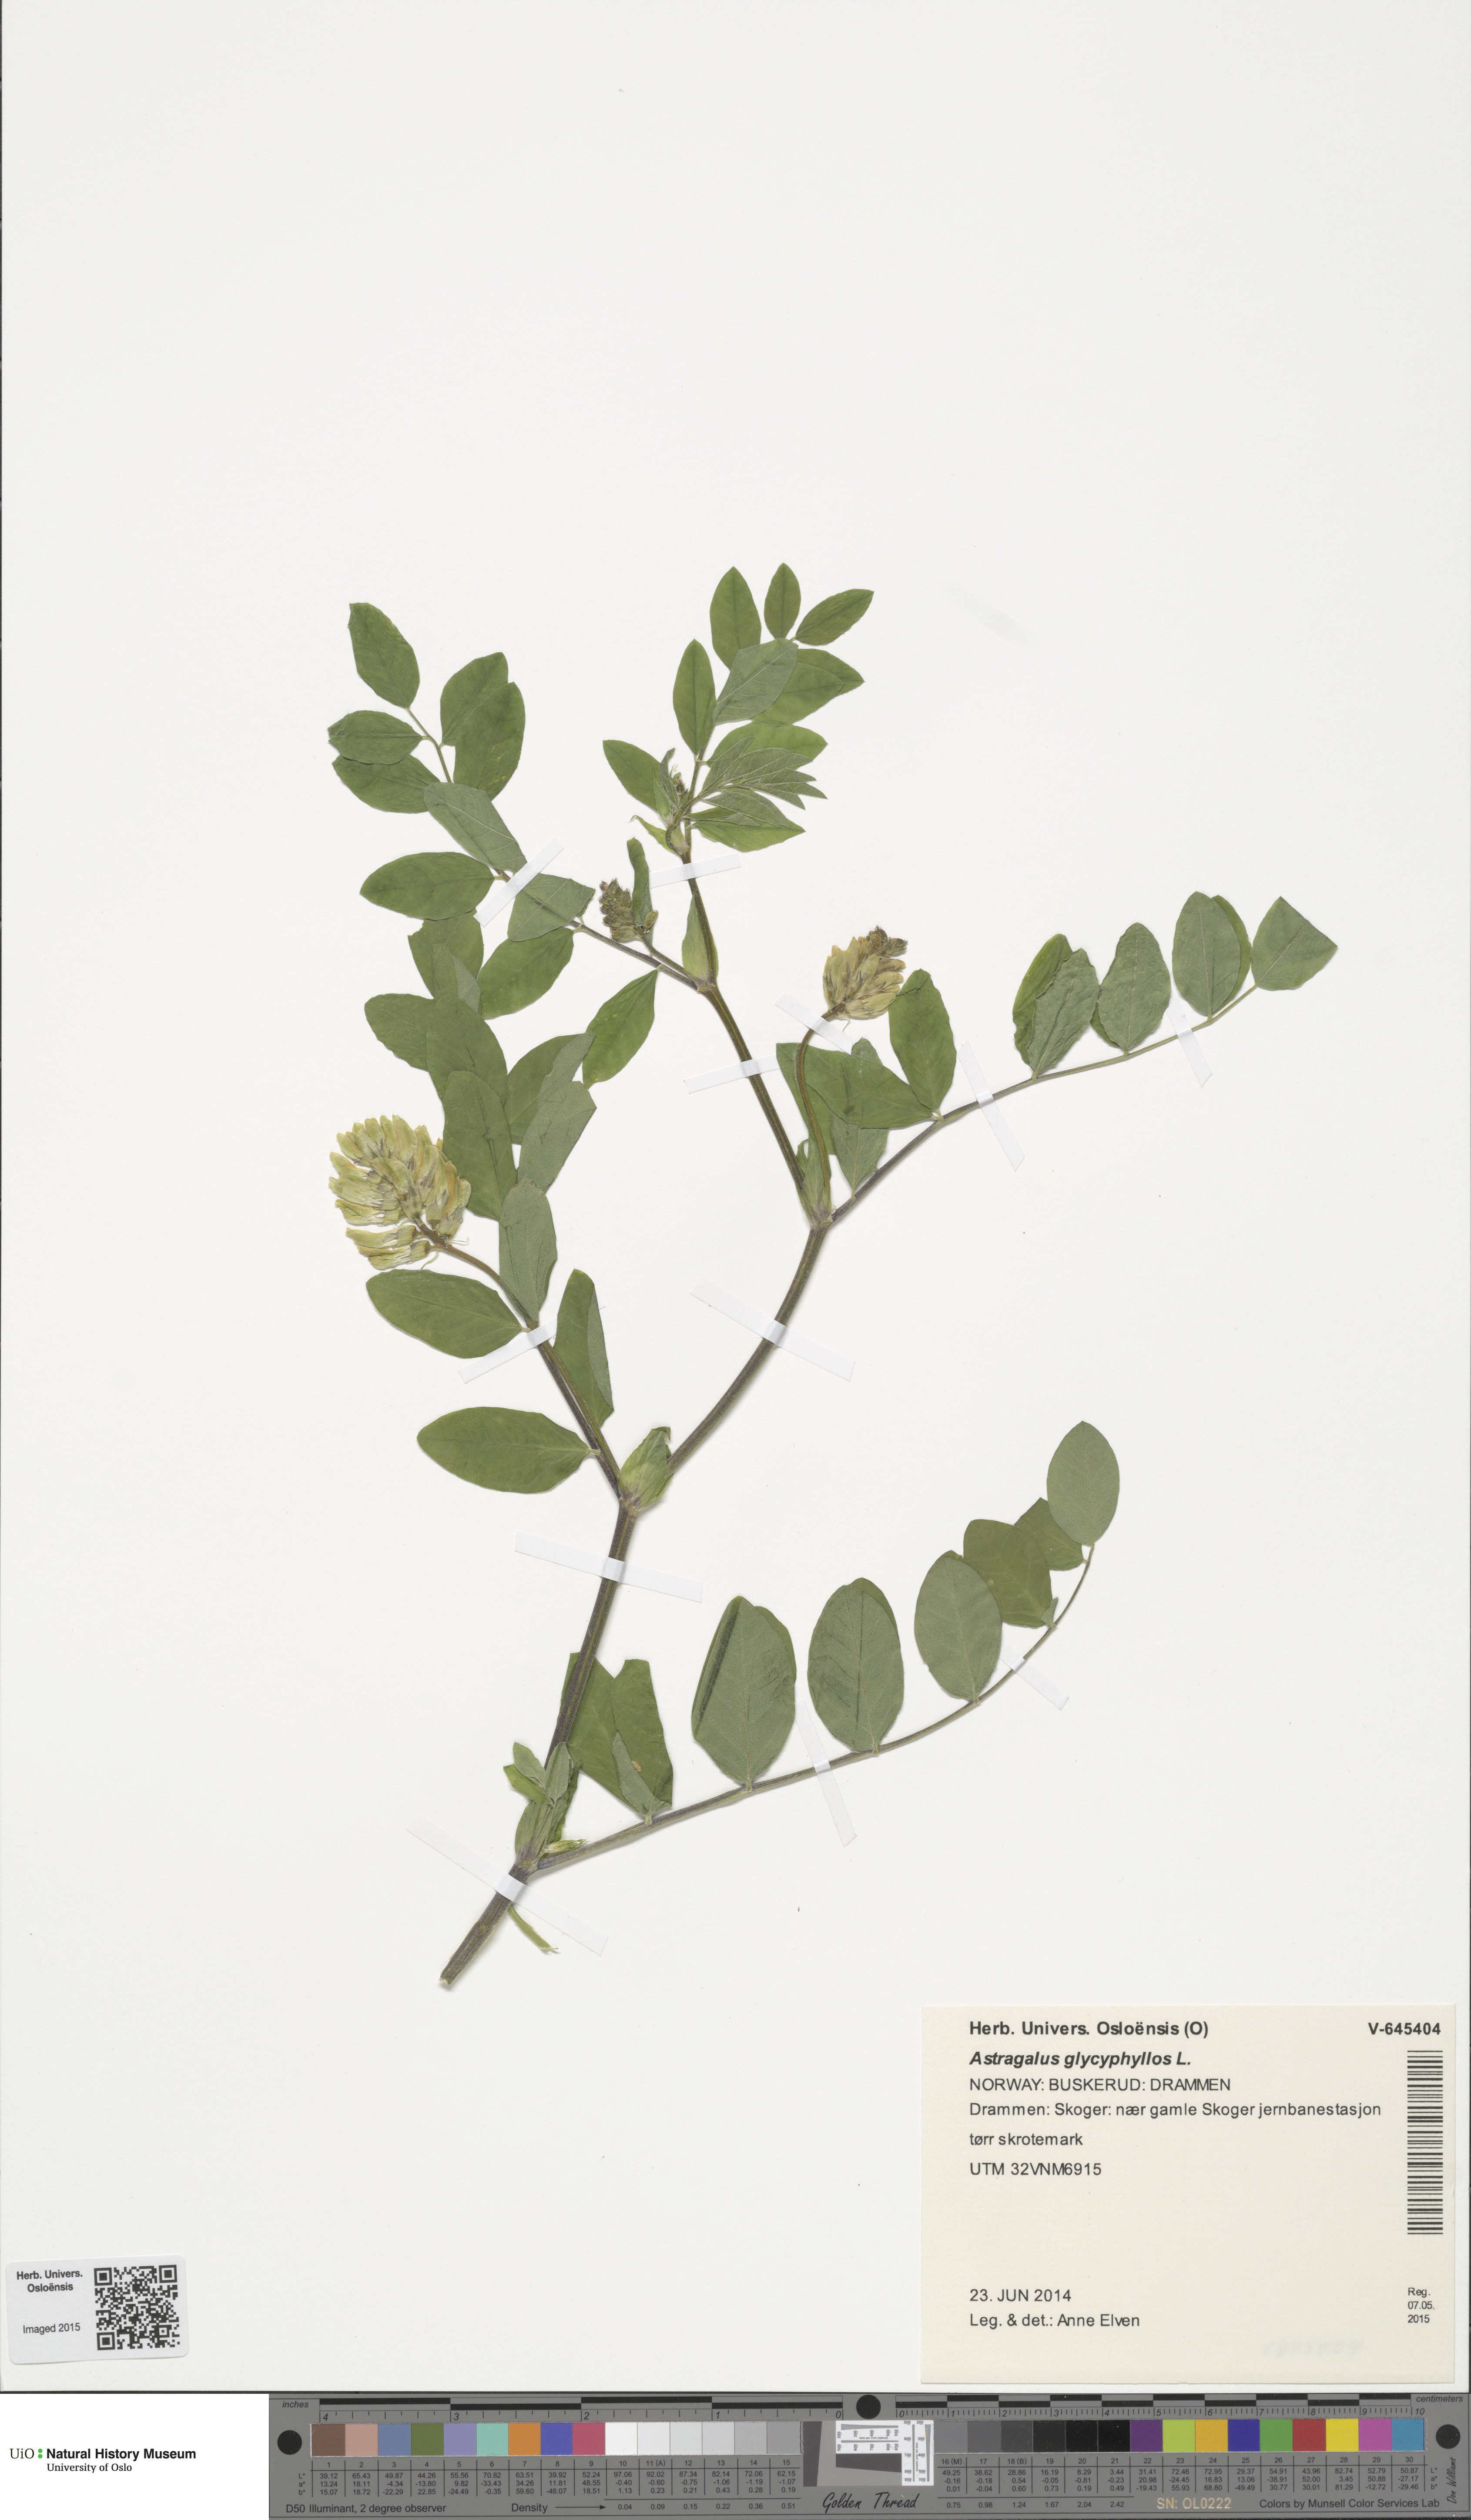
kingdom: Plantae
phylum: Tracheophyta
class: Magnoliopsida
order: Fabales
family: Fabaceae
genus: Astragalus
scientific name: Astragalus glycyphyllos
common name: Wild liquorice
